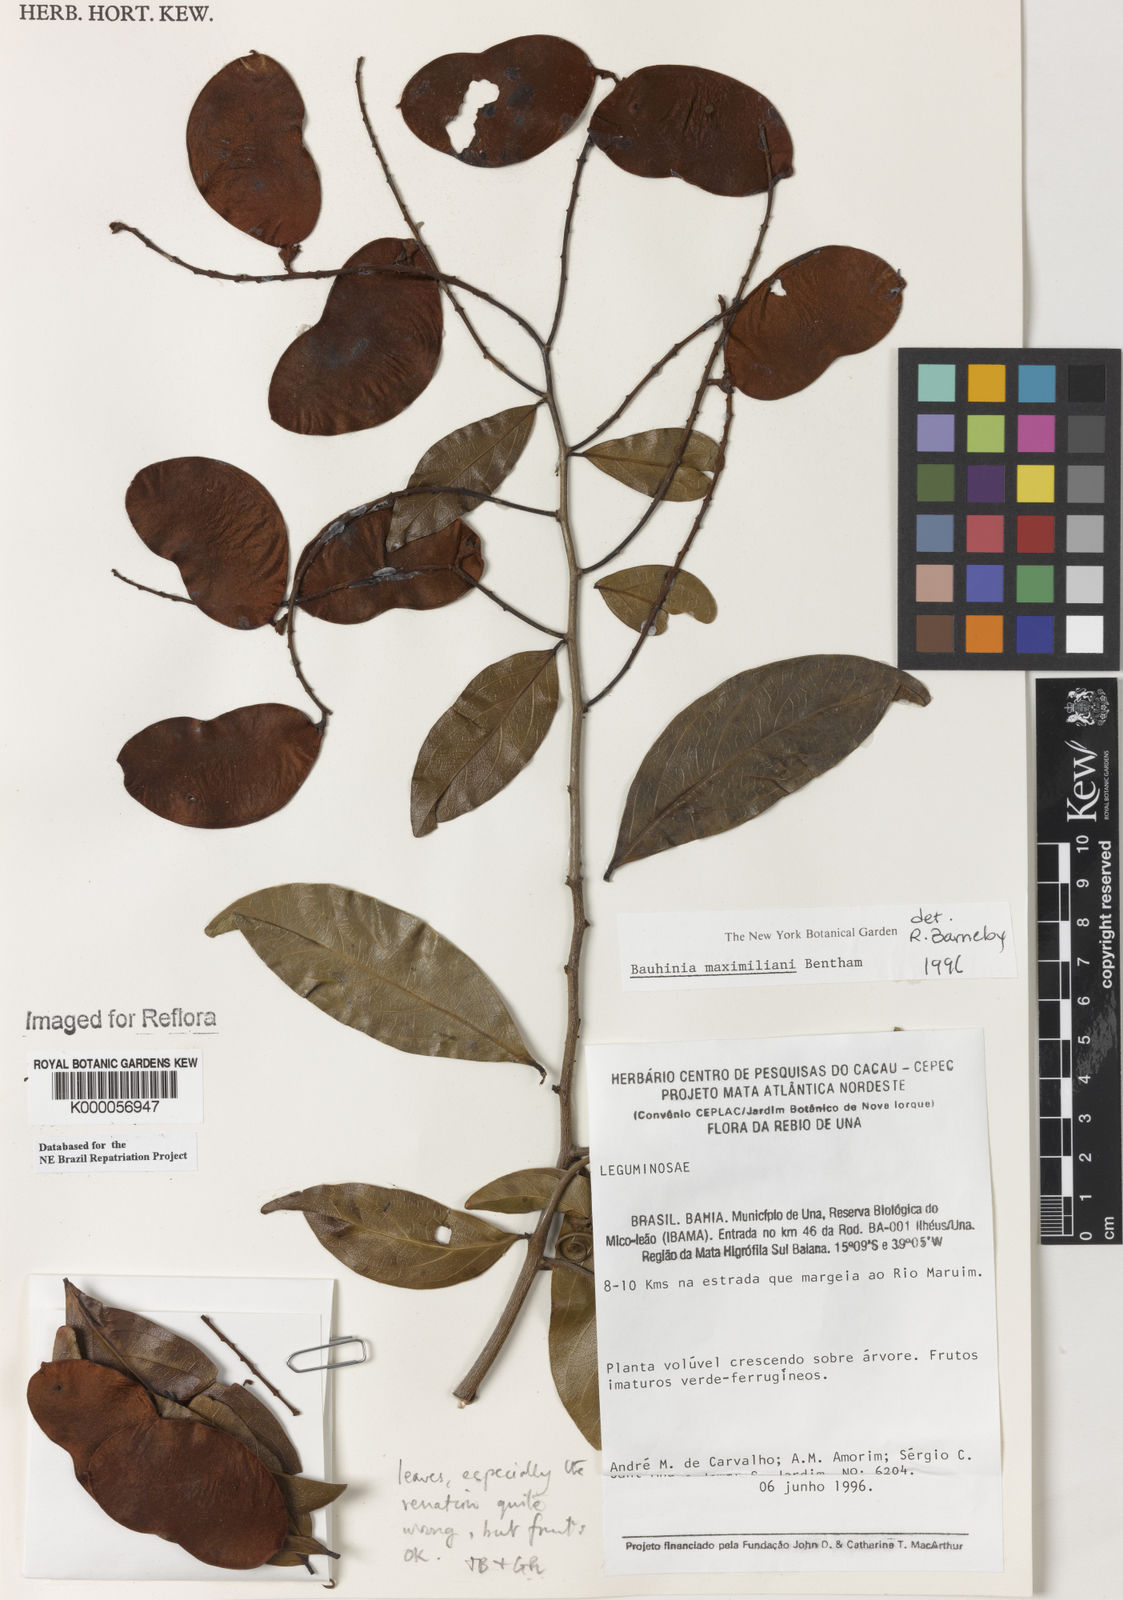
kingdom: Plantae
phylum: Tracheophyta
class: Magnoliopsida
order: Fabales
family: Fabaceae
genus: Schnella
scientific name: Schnella maximiliani
